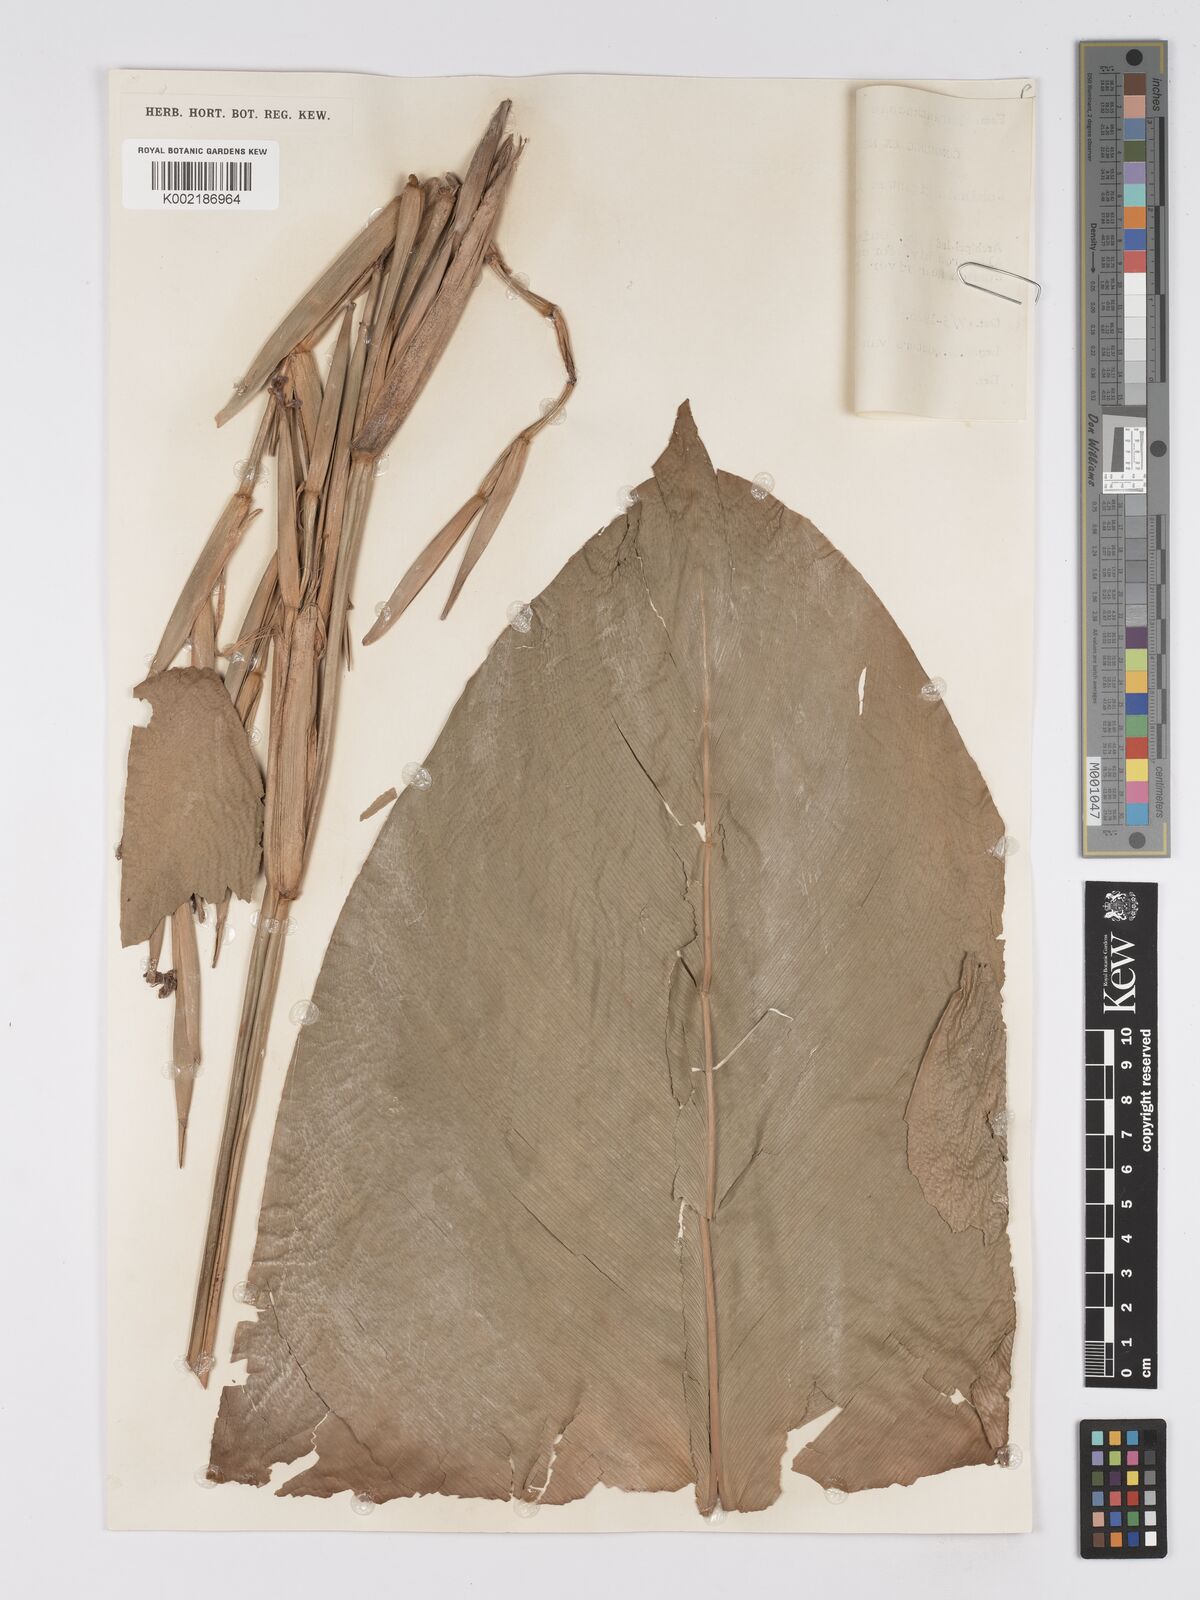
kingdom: Plantae
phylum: Tracheophyta
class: Liliopsida
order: Zingiberales
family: Marantaceae
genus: Phrynium
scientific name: Phrynium giganteum
